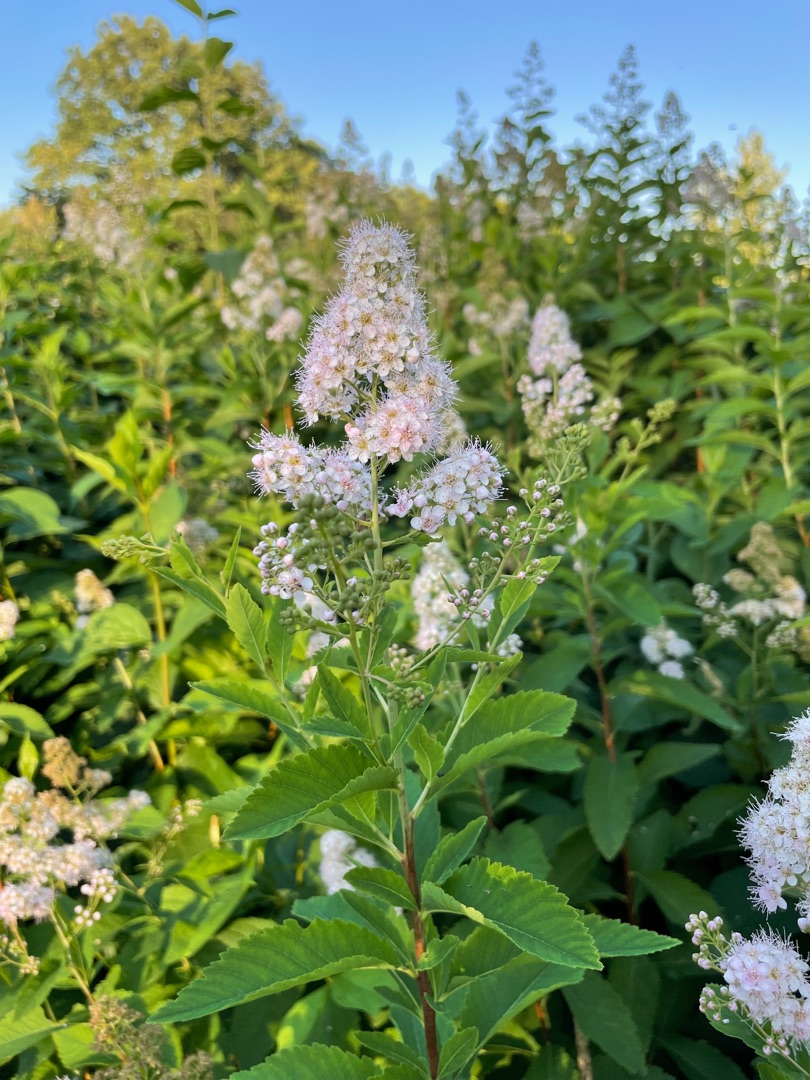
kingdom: Plantae
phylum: Tracheophyta
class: Magnoliopsida
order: Rosales
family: Rosaceae
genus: Spiraea
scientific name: Spiraea alba
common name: Bredbladet spiræa
